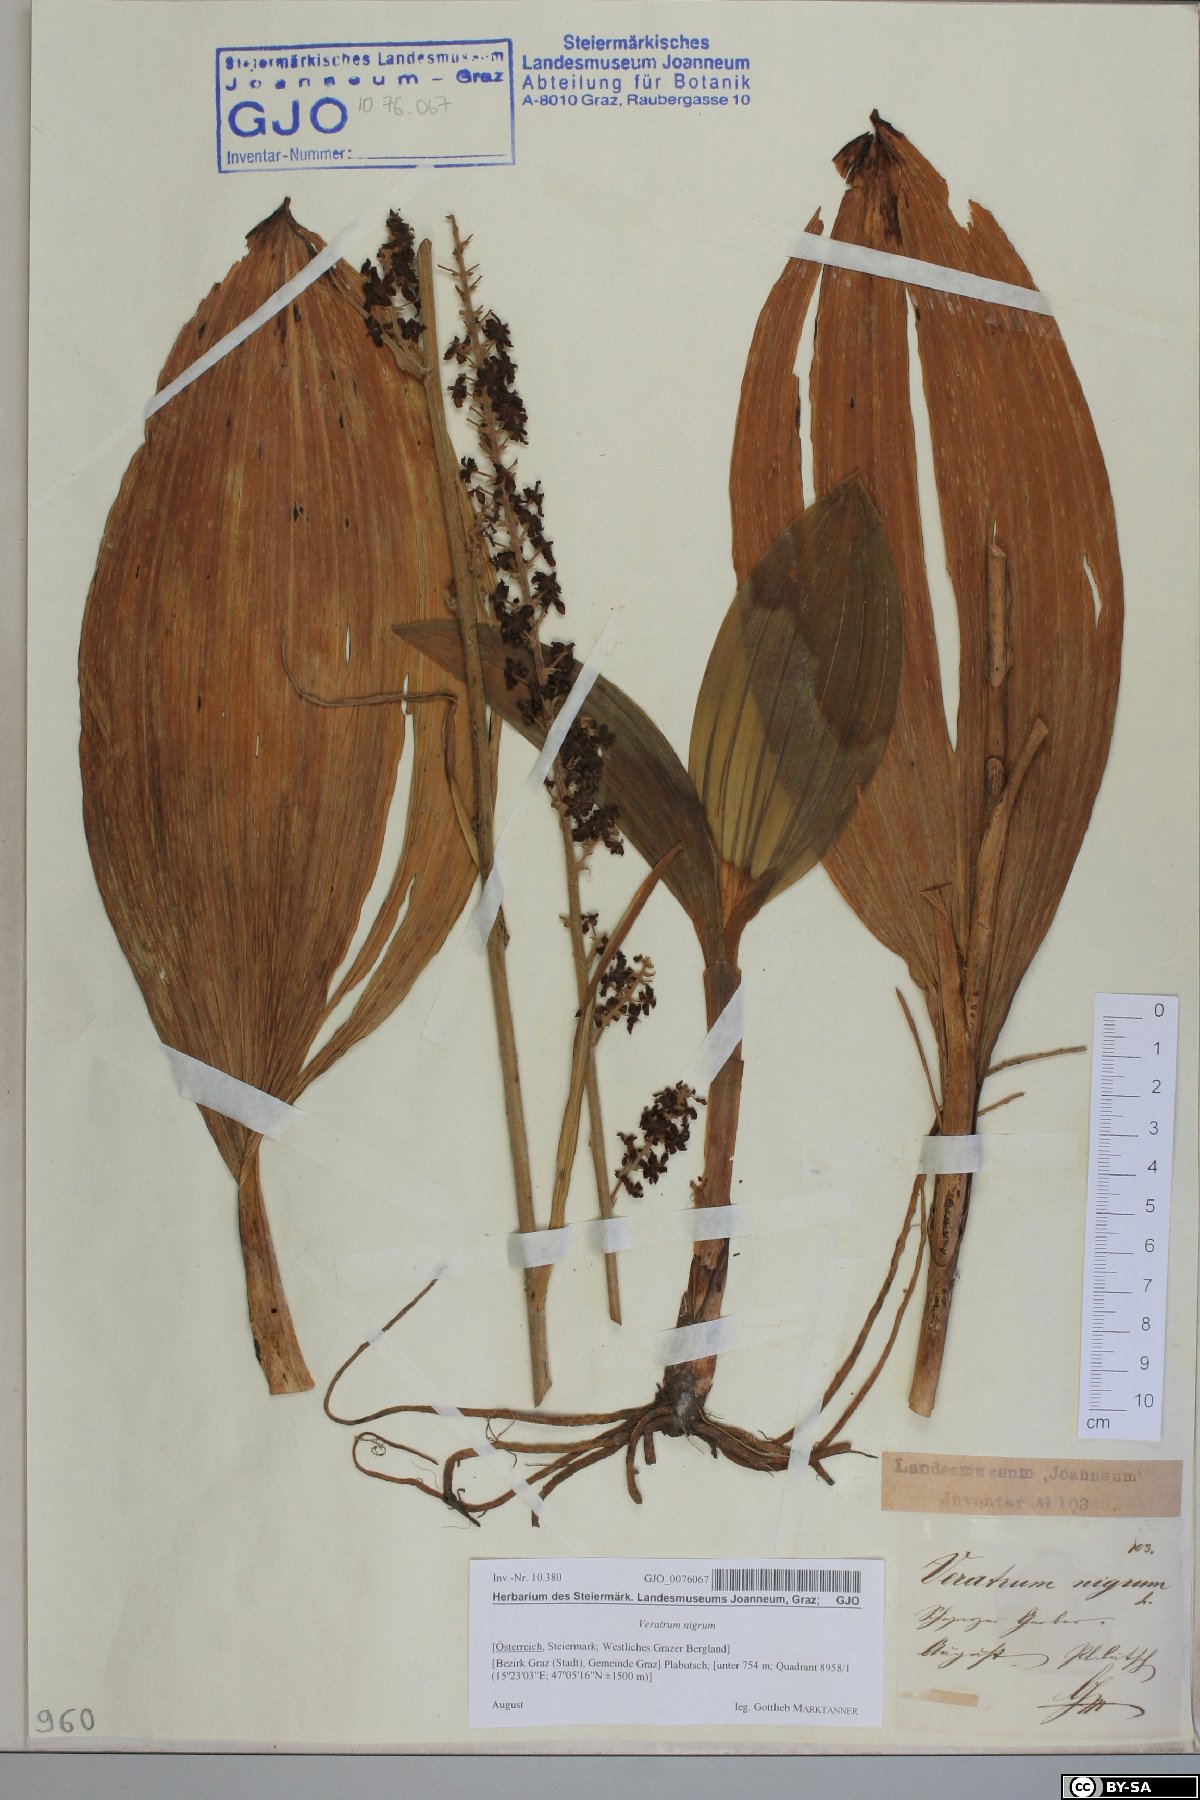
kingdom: Plantae
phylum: Tracheophyta
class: Liliopsida
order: Liliales
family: Melanthiaceae
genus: Veratrum
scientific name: Veratrum nigrum
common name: Black veratrum
